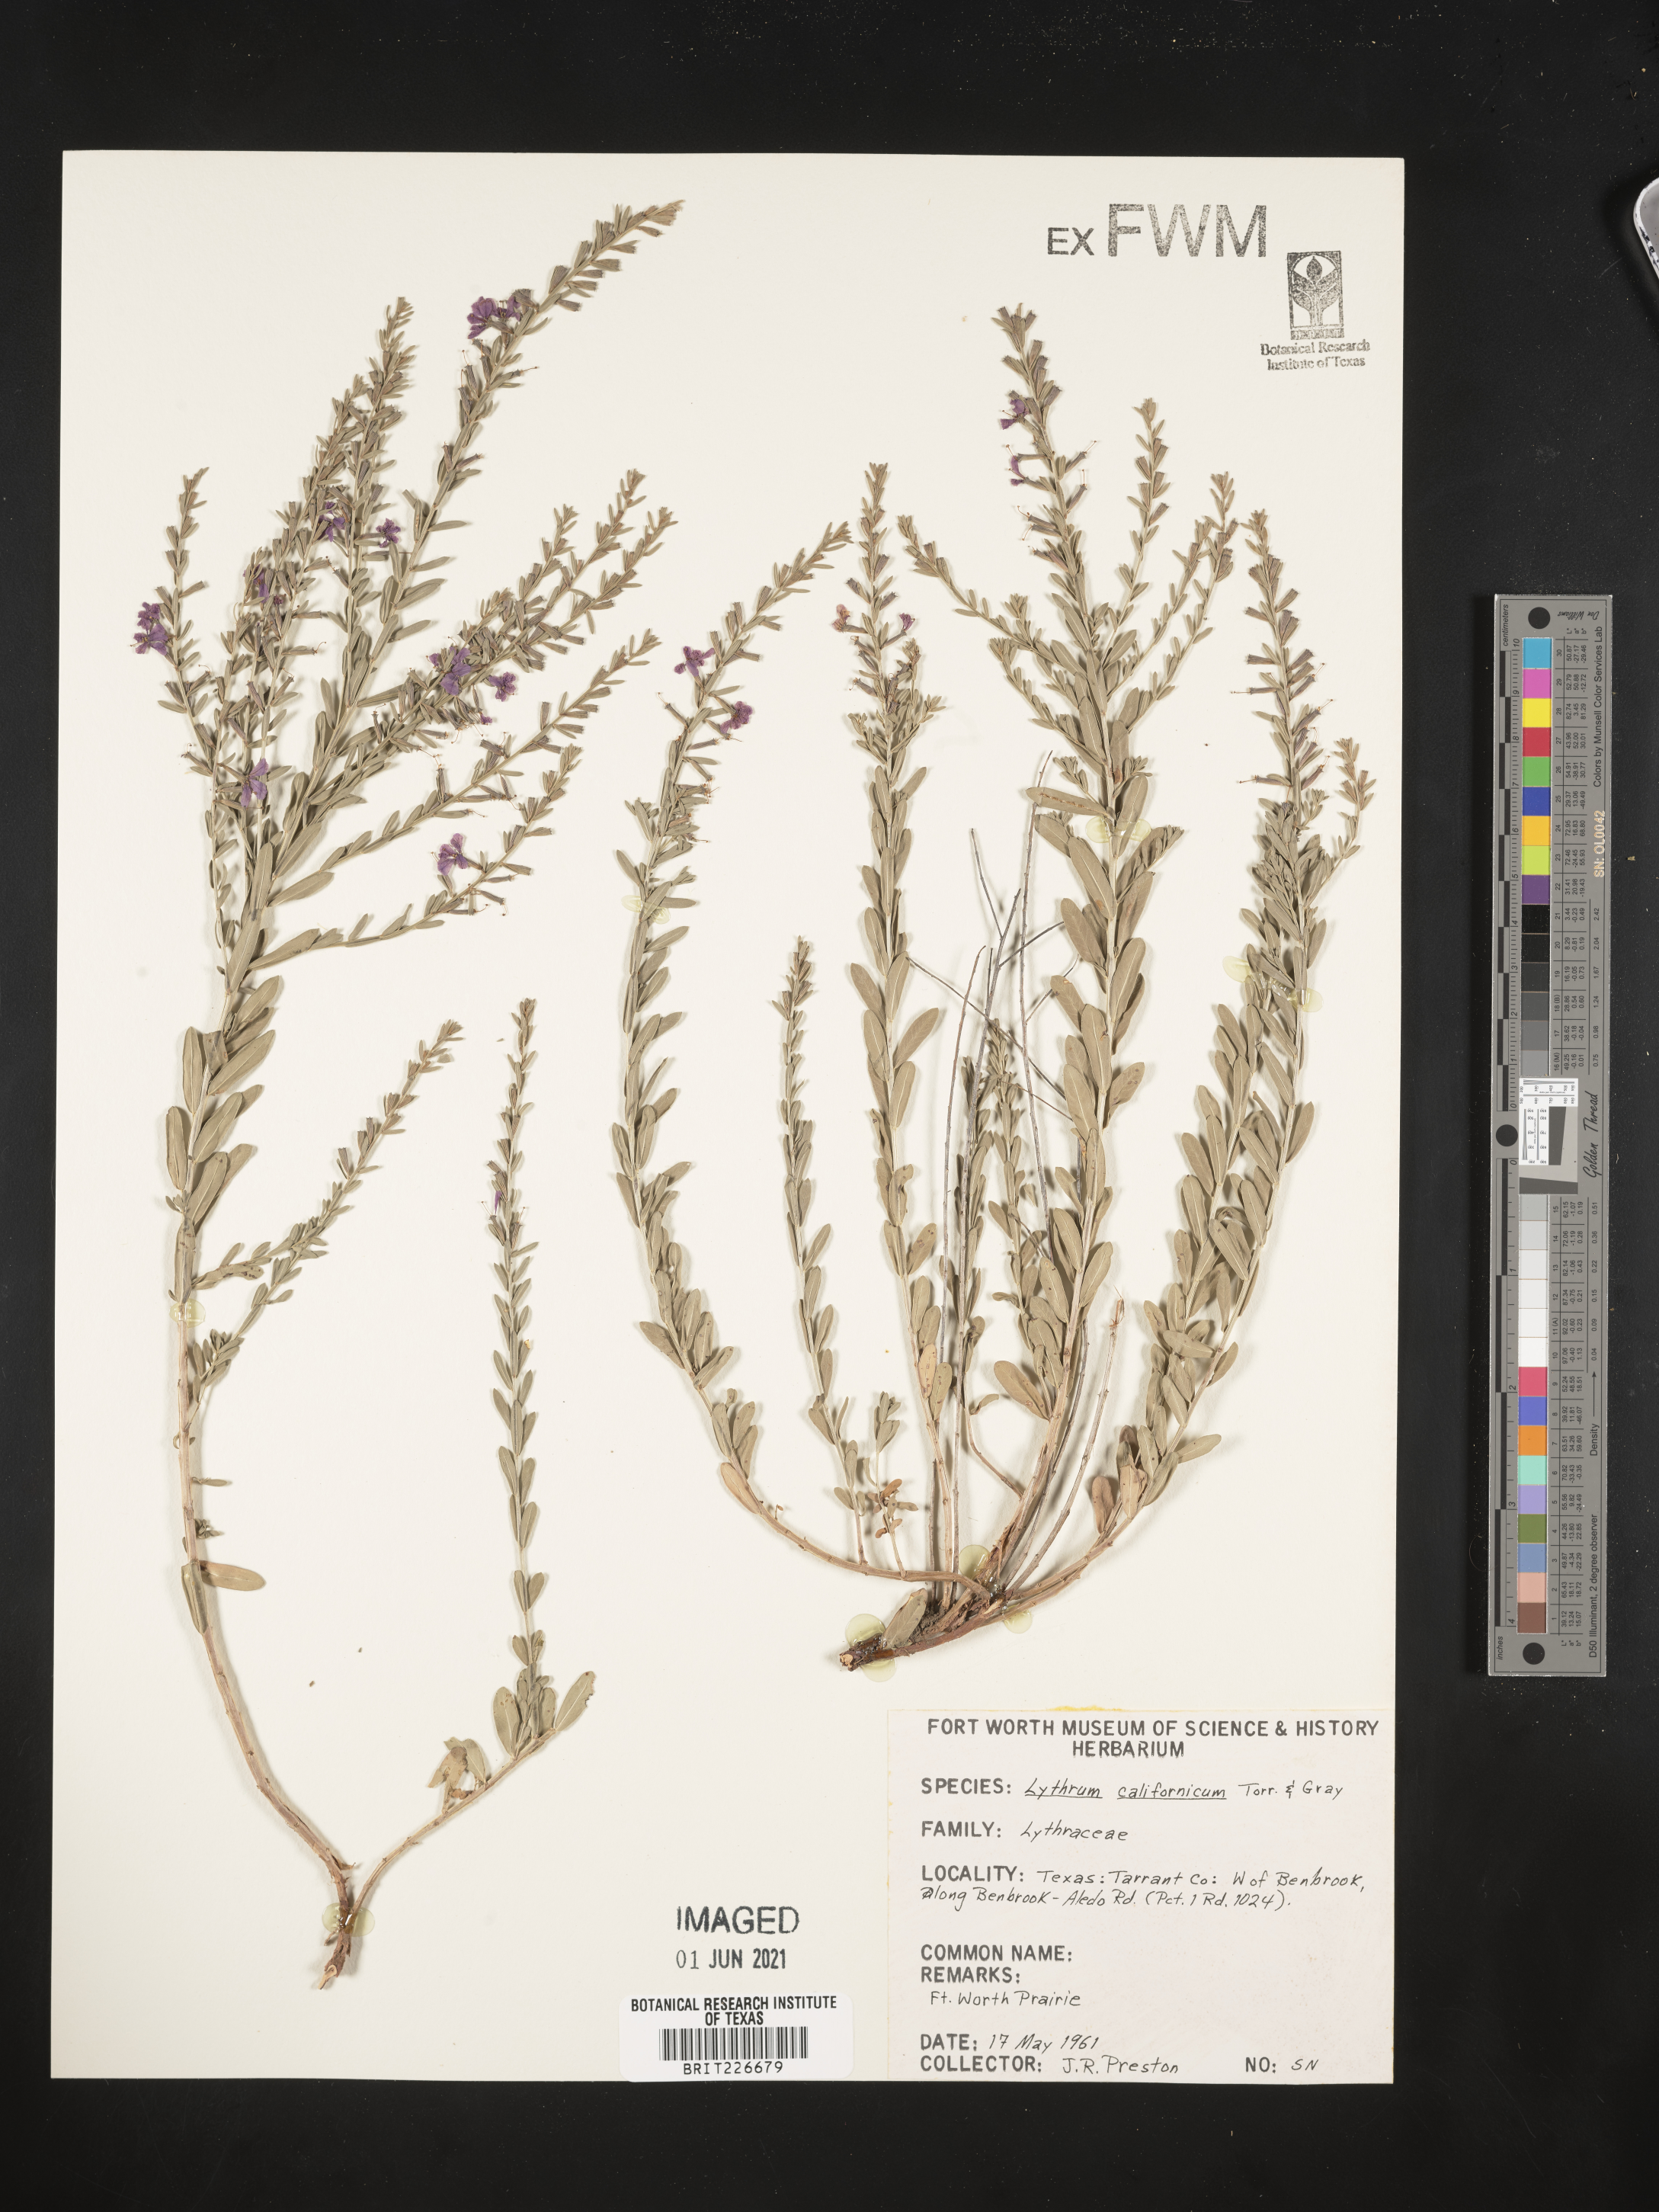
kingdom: Plantae
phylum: Tracheophyta
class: Magnoliopsida
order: Myrtales
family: Lythraceae
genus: Lythrum
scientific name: Lythrum californicum
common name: California loosestrife
